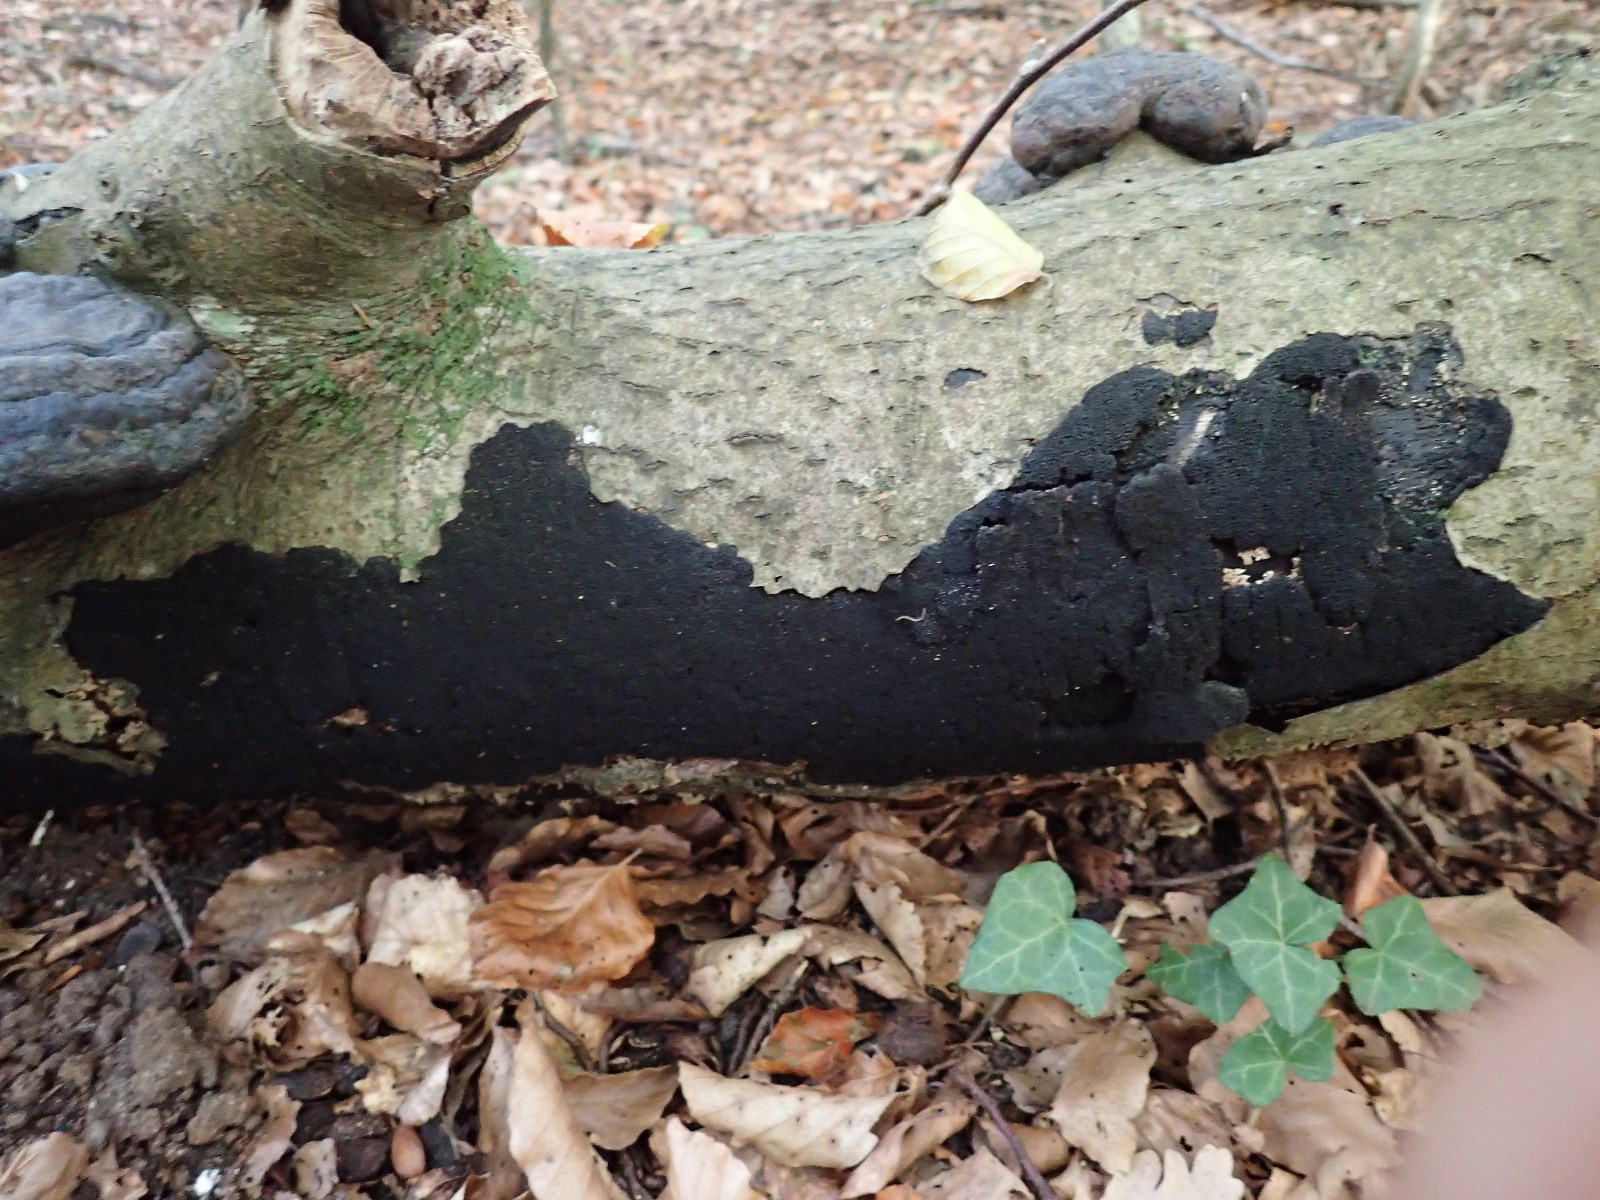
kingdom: Fungi
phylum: Ascomycota
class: Sordariomycetes
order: Xylariales
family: Diatrypaceae
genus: Eutypa
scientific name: Eutypa spinosa
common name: grov kulskorpe
